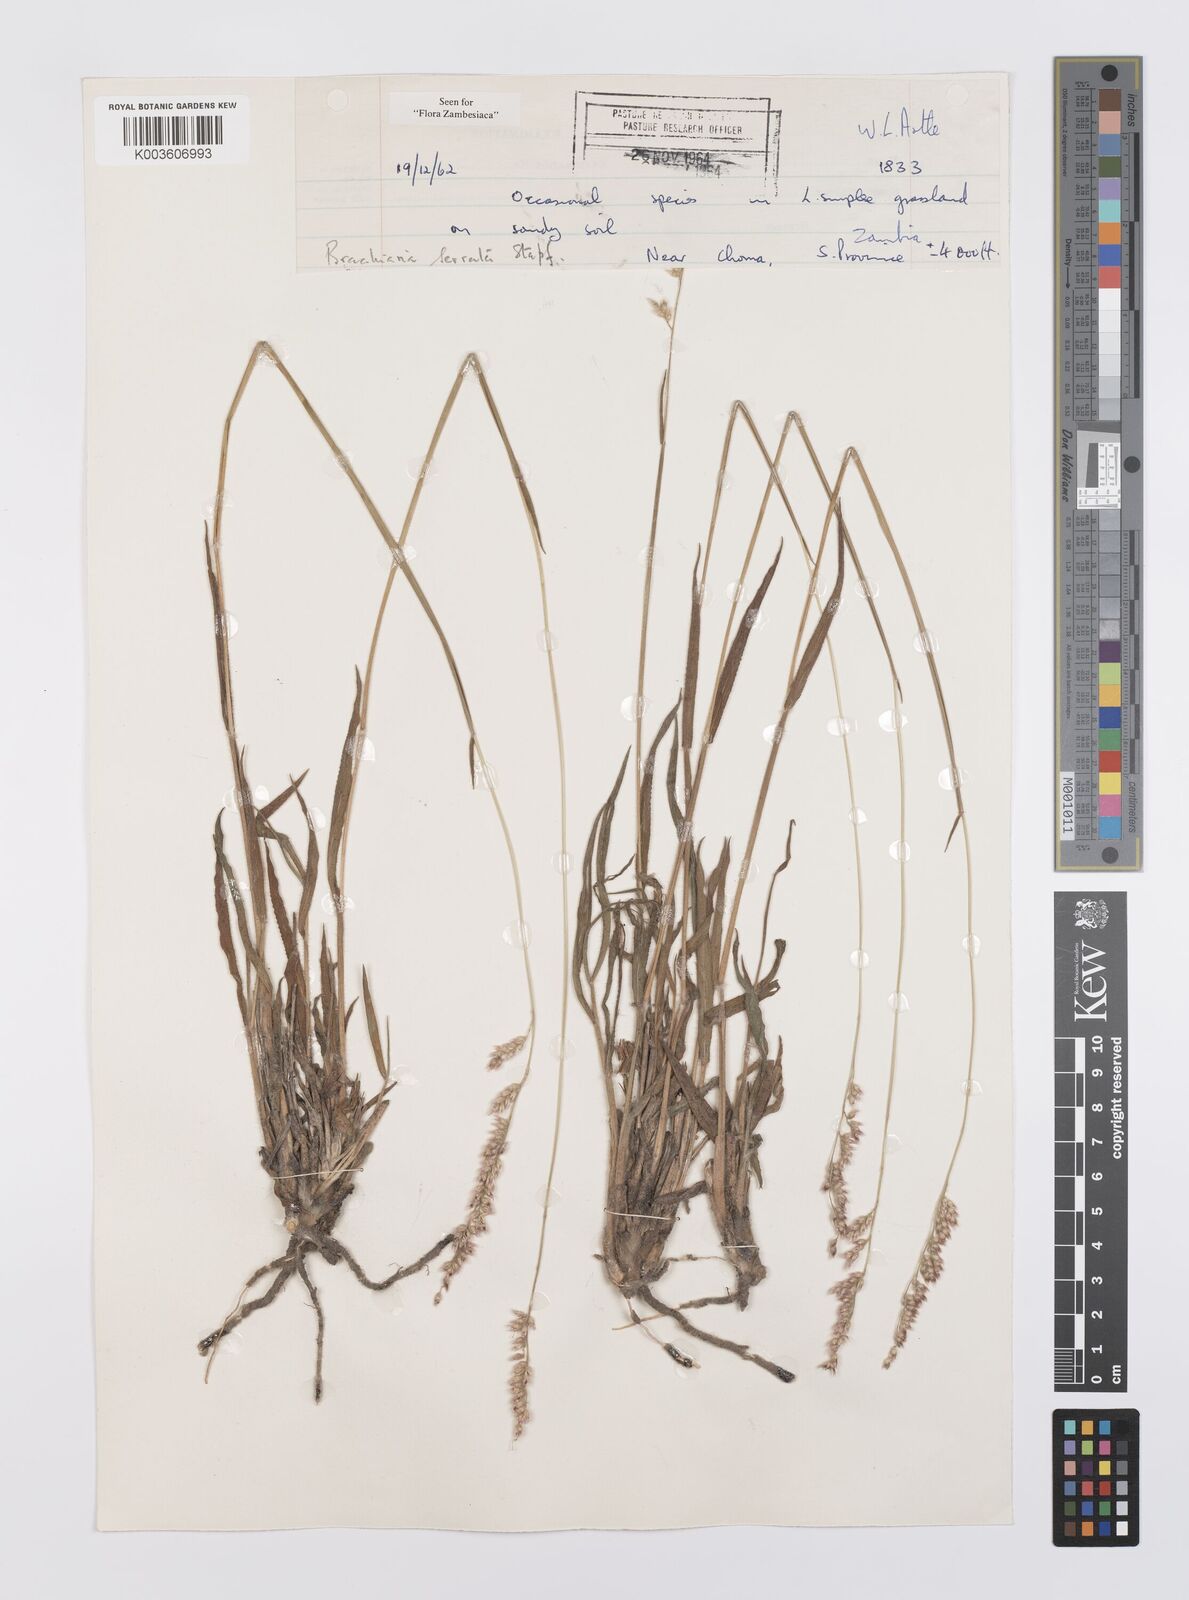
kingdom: Plantae
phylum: Tracheophyta
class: Liliopsida
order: Poales
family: Poaceae
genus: Urochloa
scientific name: Urochloa serrata
